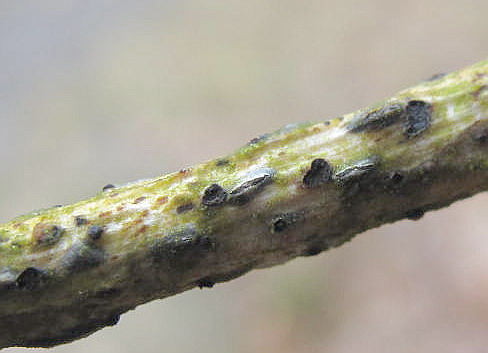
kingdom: Fungi
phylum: Ascomycota
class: Leotiomycetes
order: Rhytismatales
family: Rhytismataceae
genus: Colpoma
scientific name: Colpoma quercinum
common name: ege-sprækkeskive
